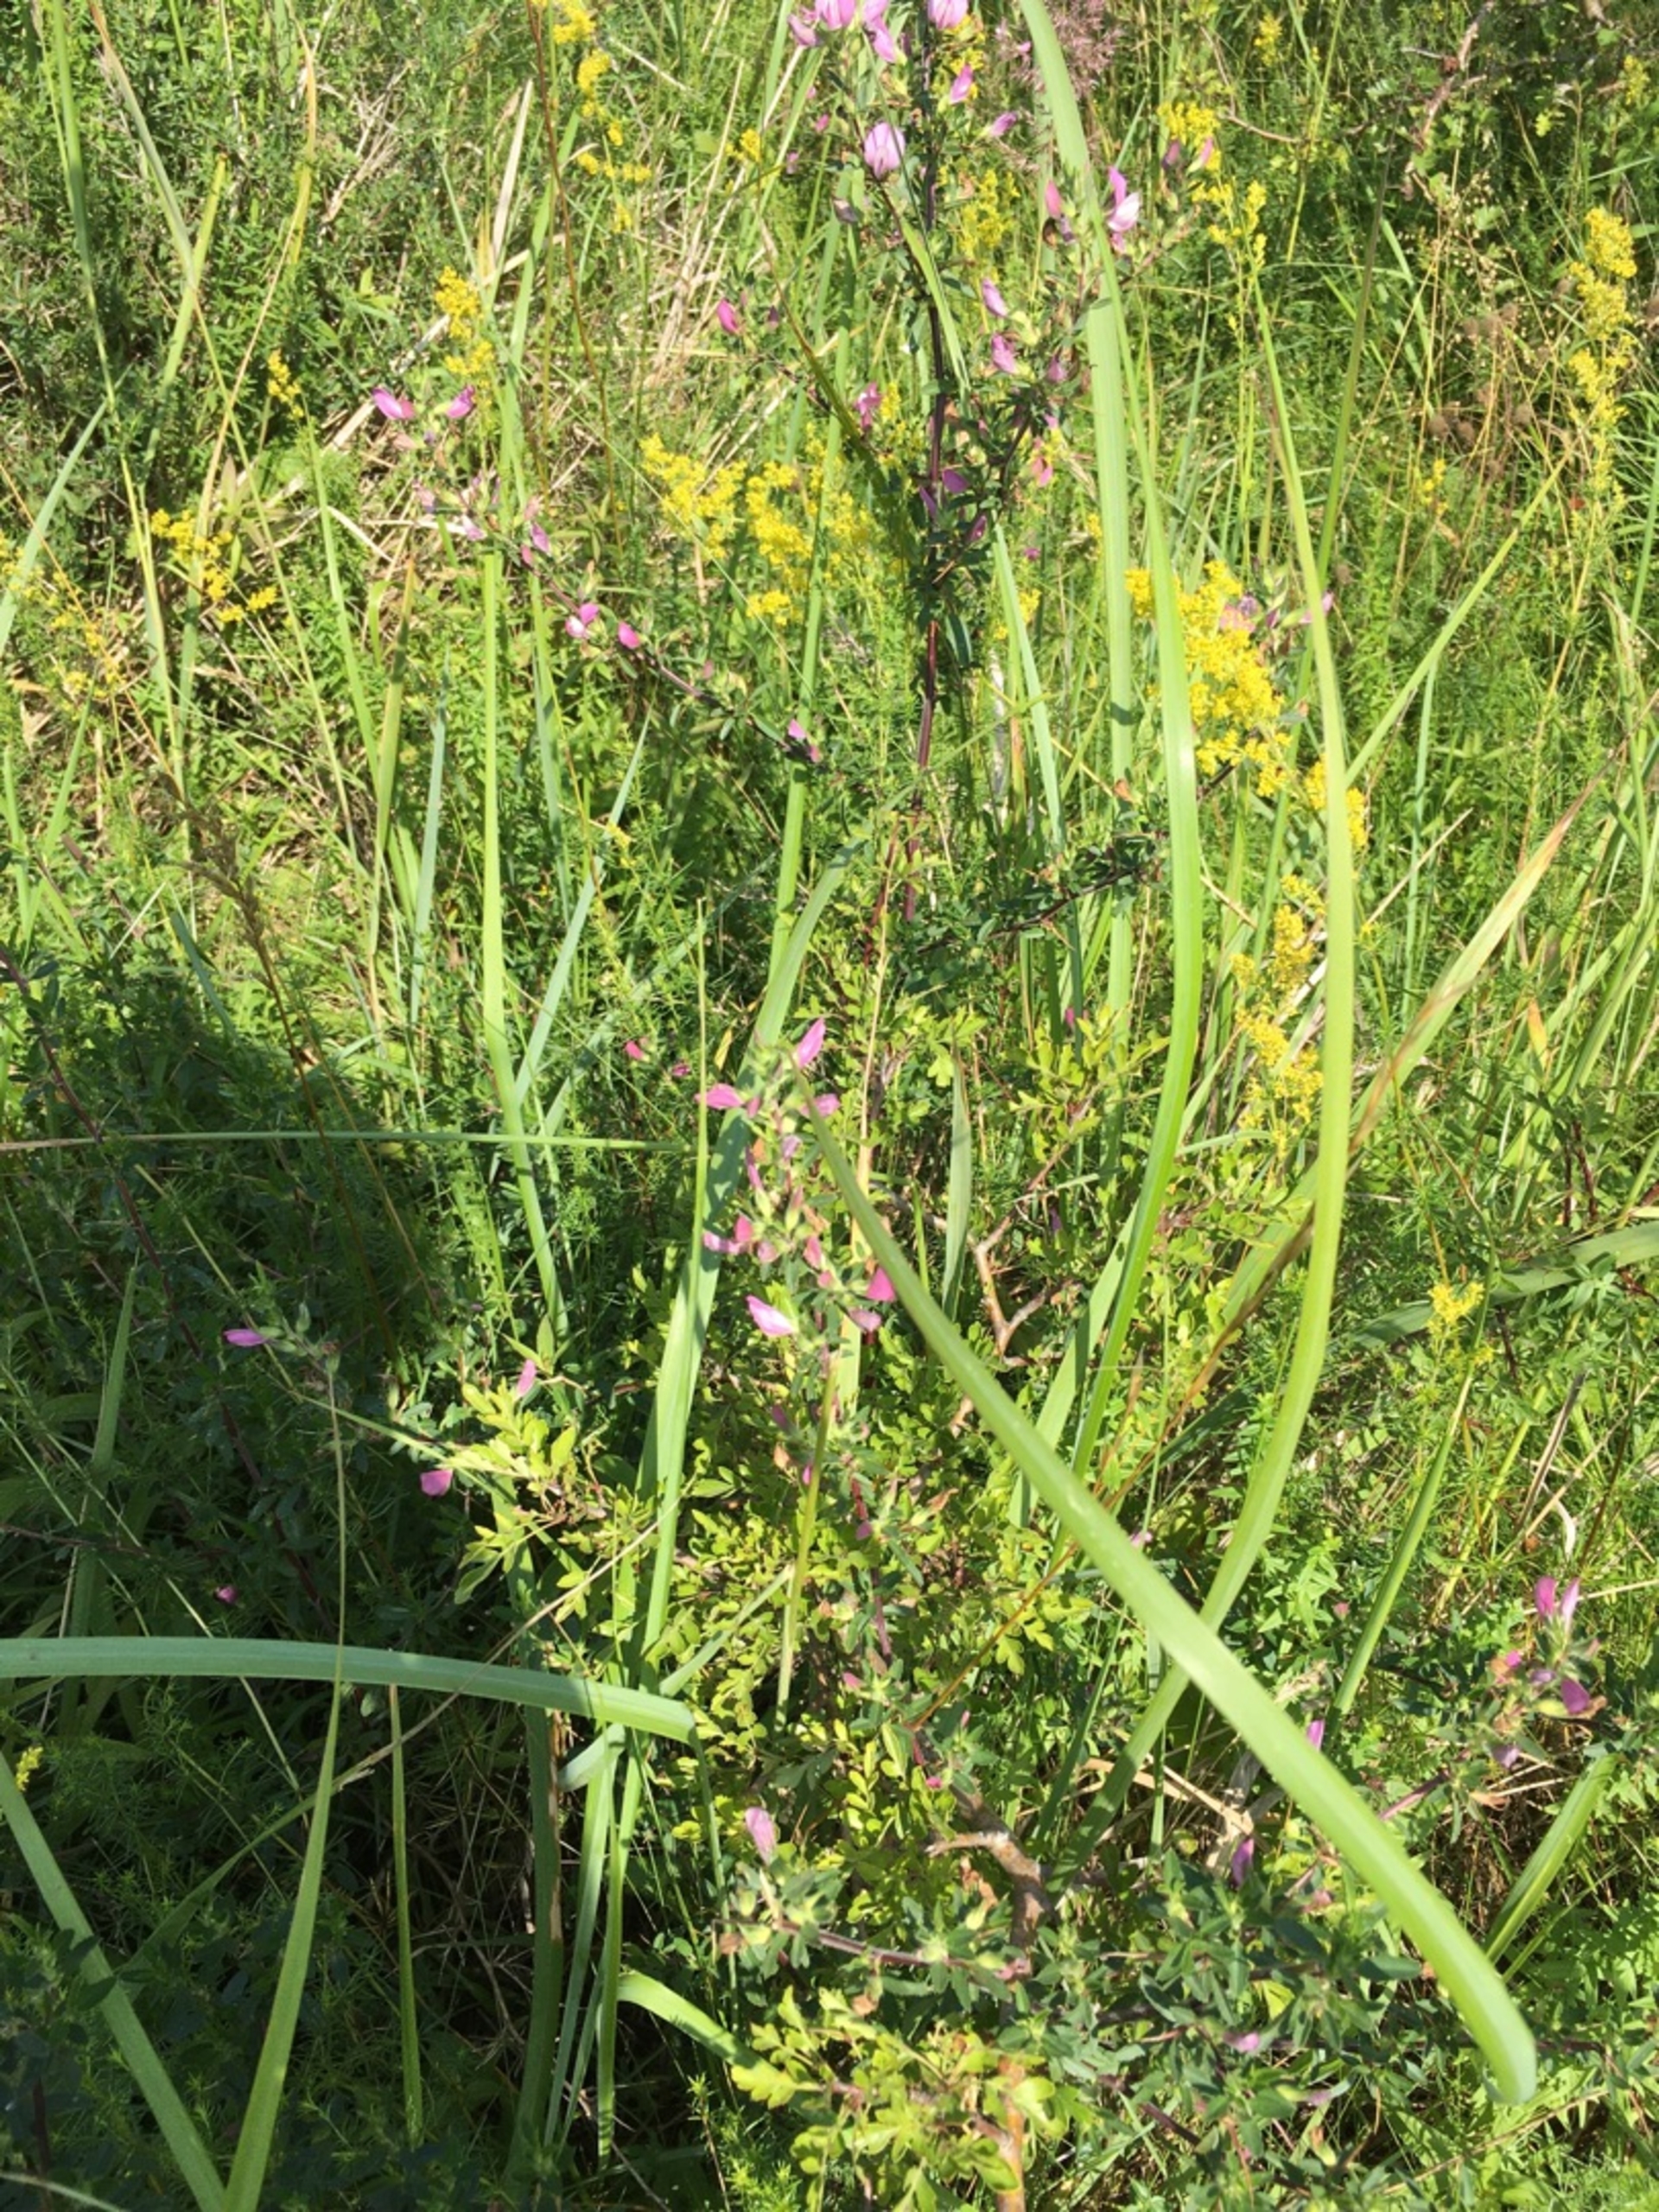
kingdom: Plantae
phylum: Tracheophyta
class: Magnoliopsida
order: Fabales
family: Fabaceae
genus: Ononis
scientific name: Ononis spinosa
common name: Mark-krageklo
